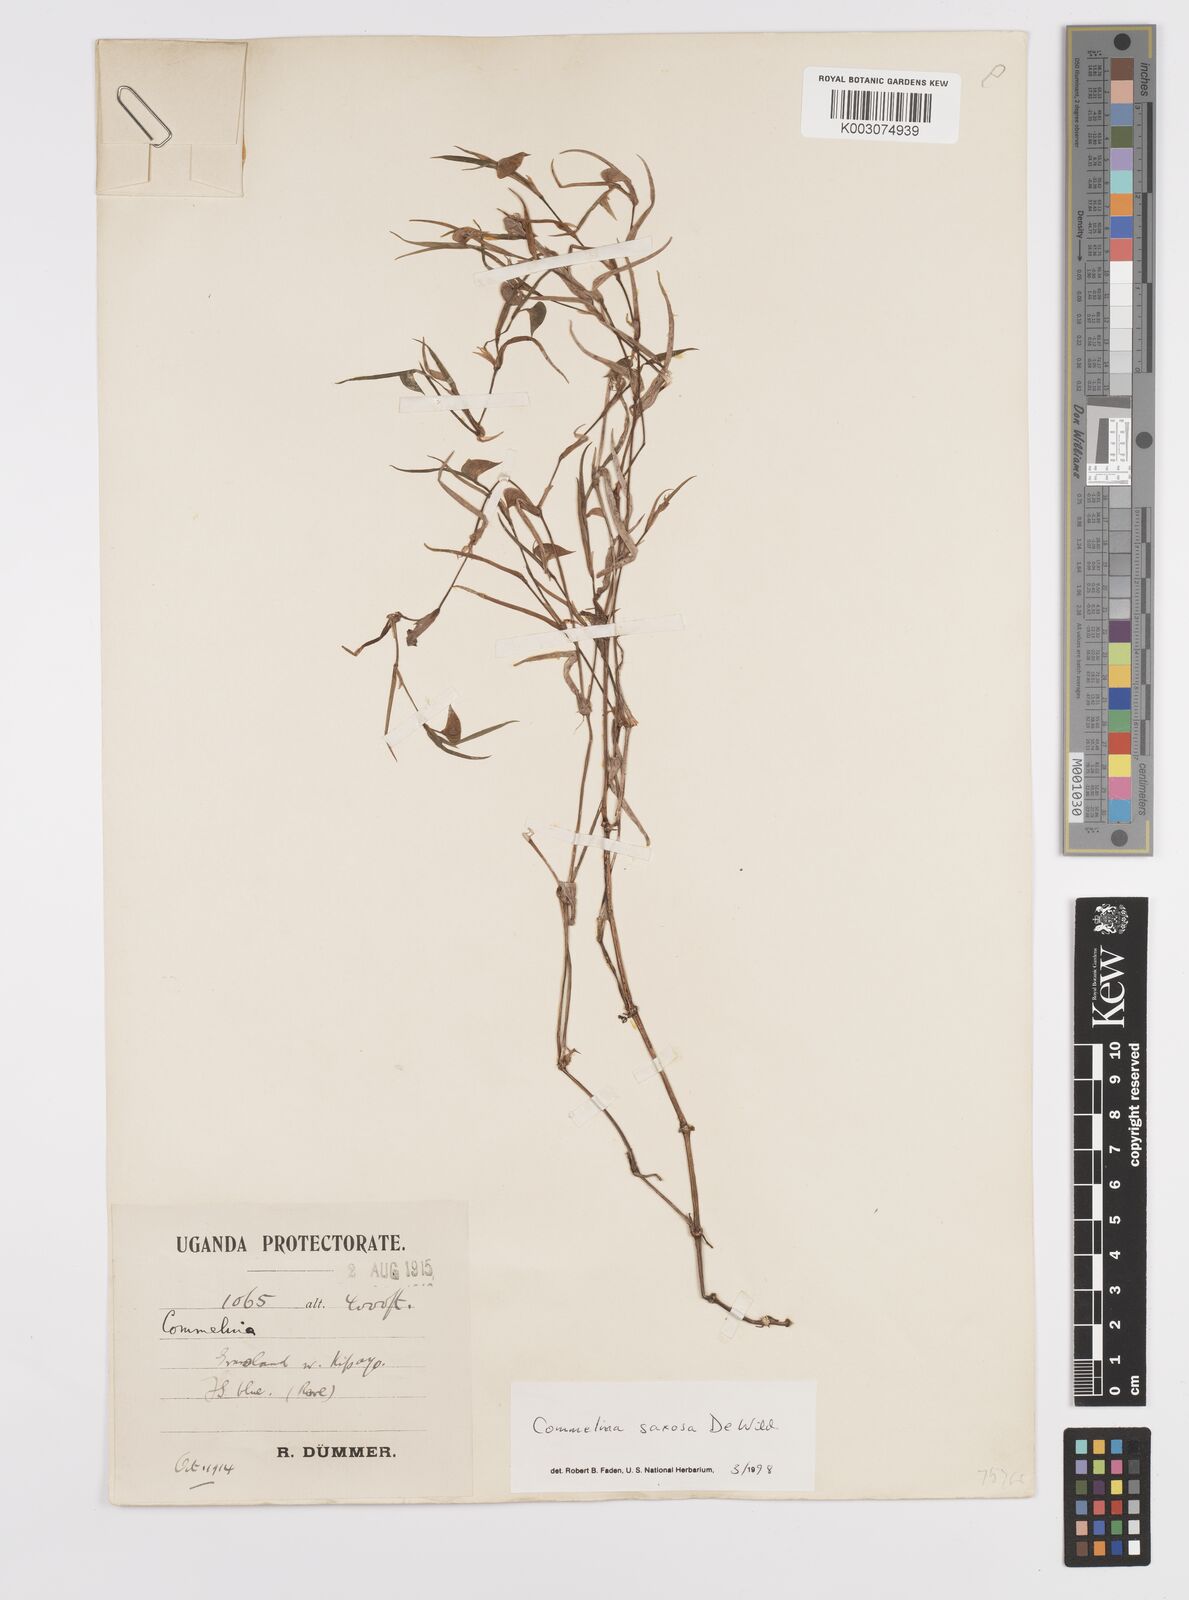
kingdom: Plantae
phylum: Tracheophyta
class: Liliopsida
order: Commelinales
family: Commelinaceae
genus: Commelina
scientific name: Commelina saxosa
